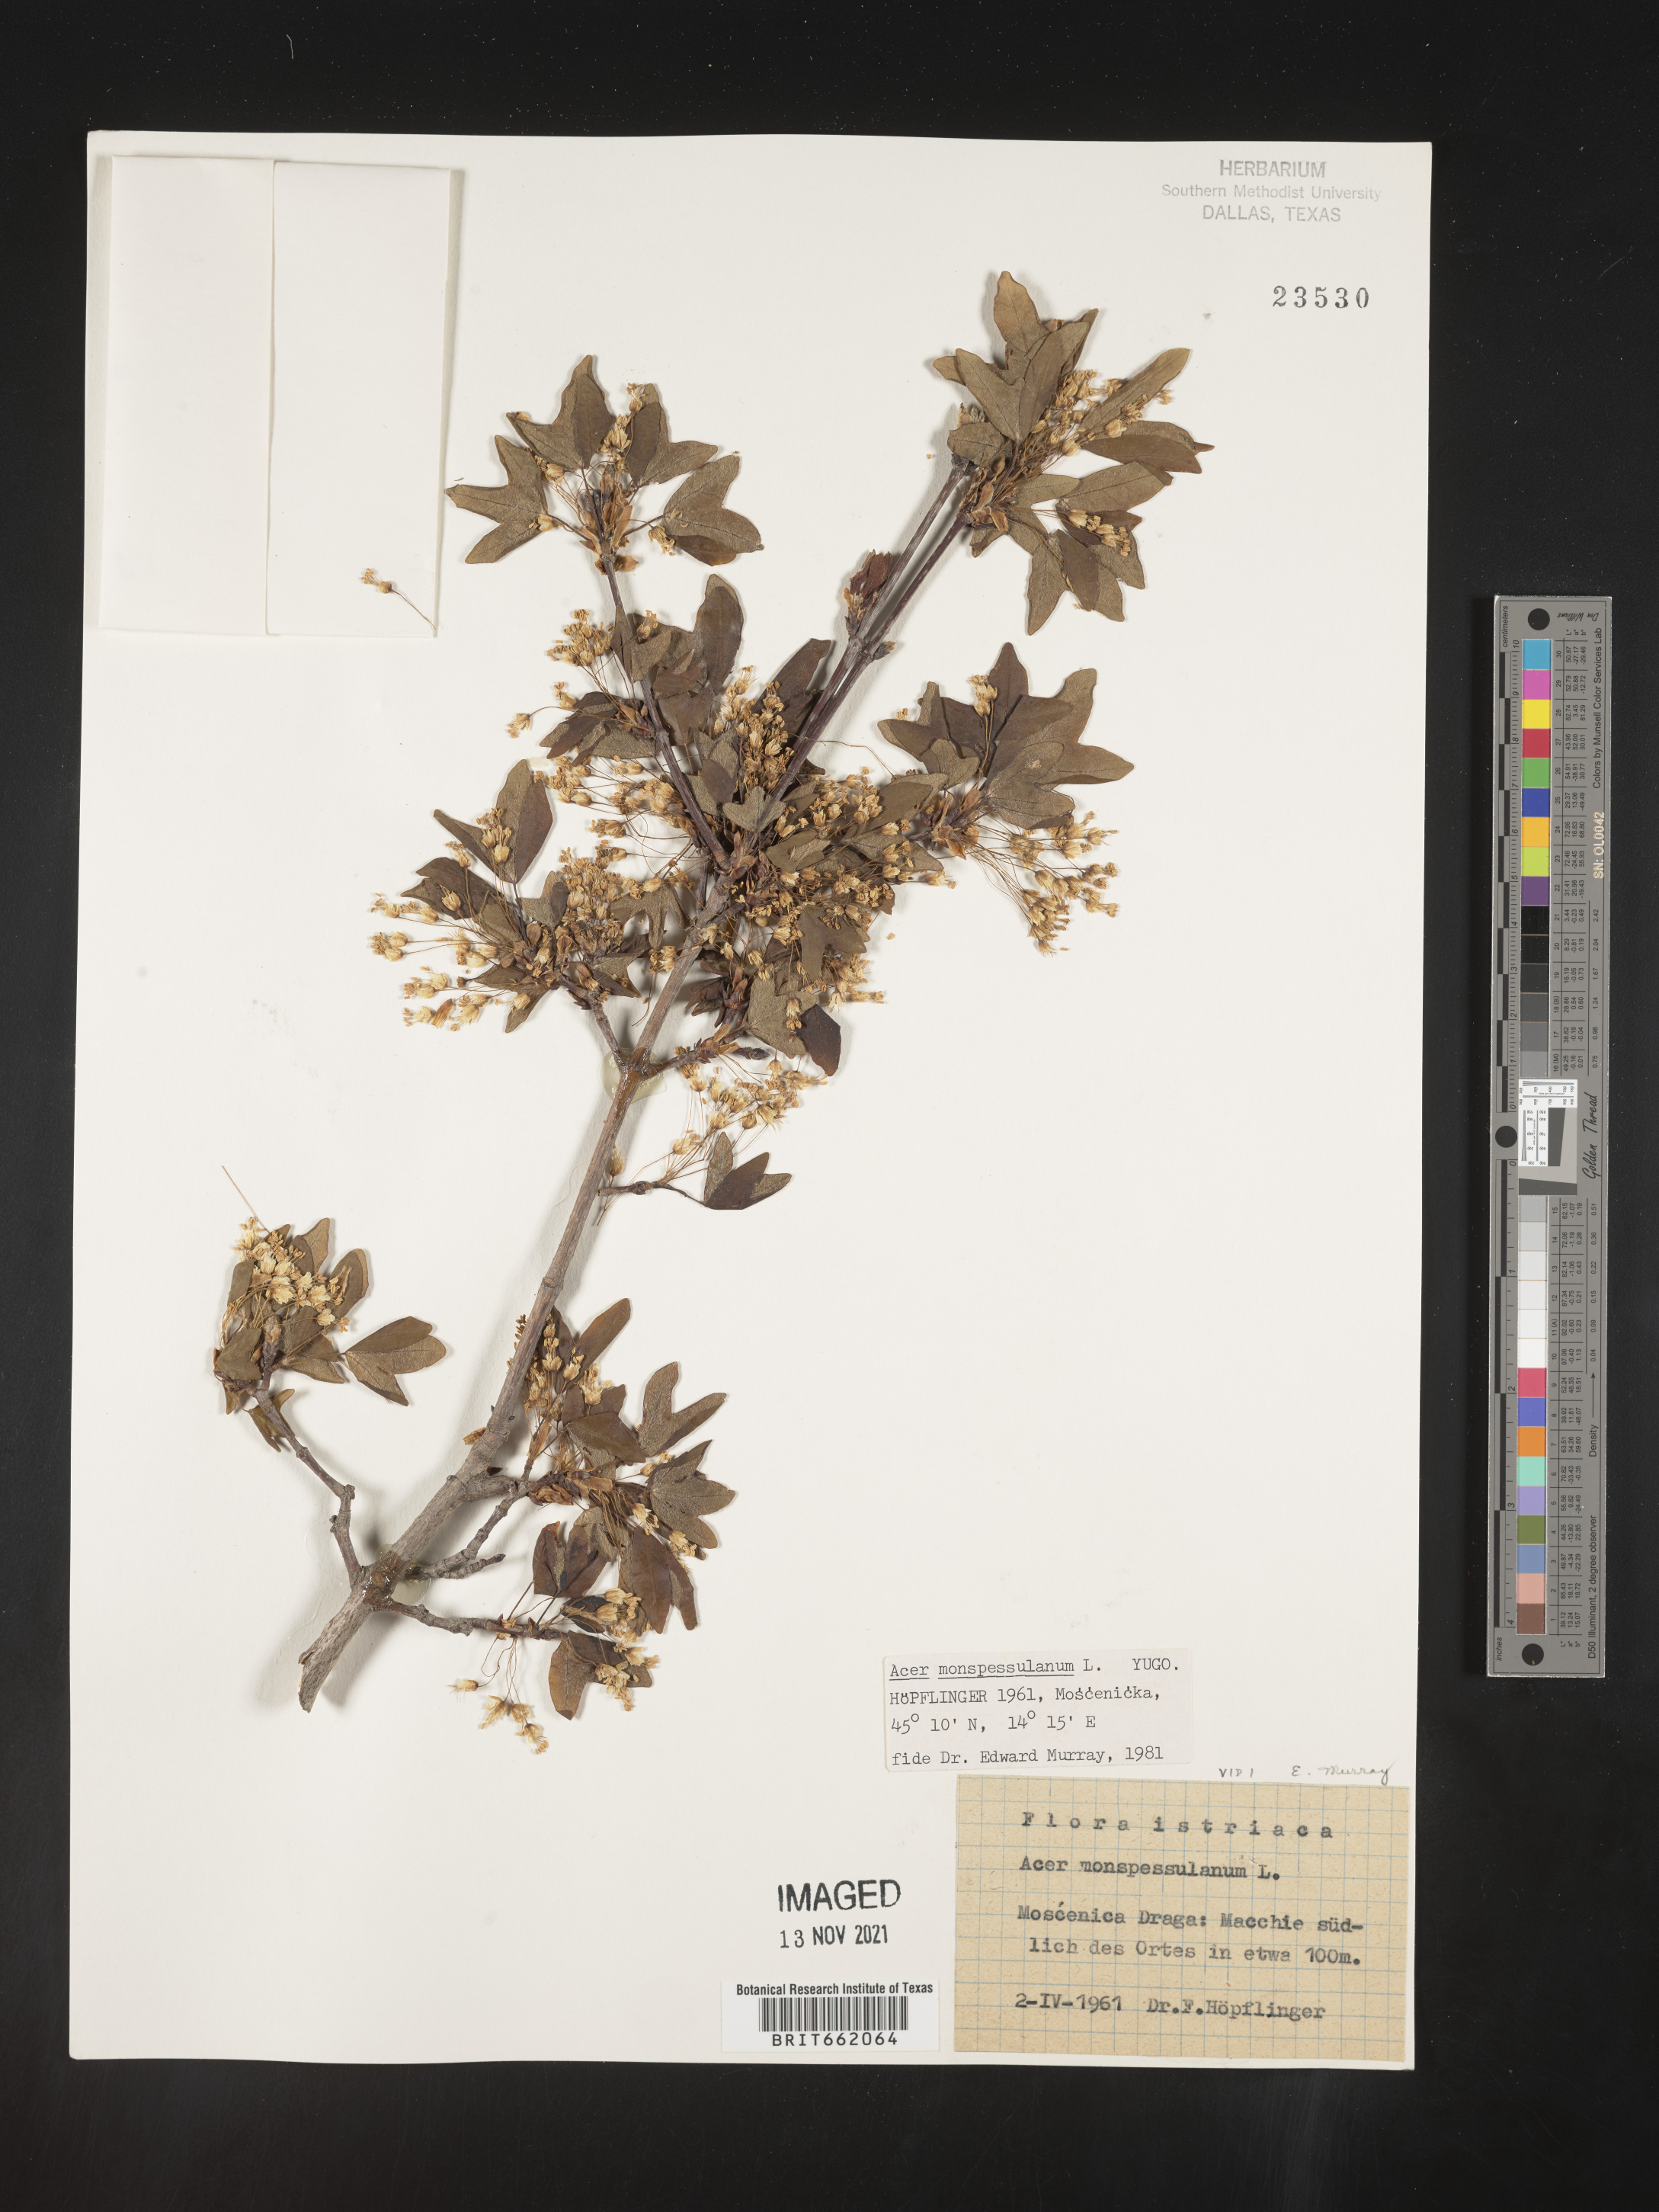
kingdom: Plantae
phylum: Tracheophyta
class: Magnoliopsida
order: Sapindales
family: Sapindaceae
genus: Acer
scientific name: Acer
